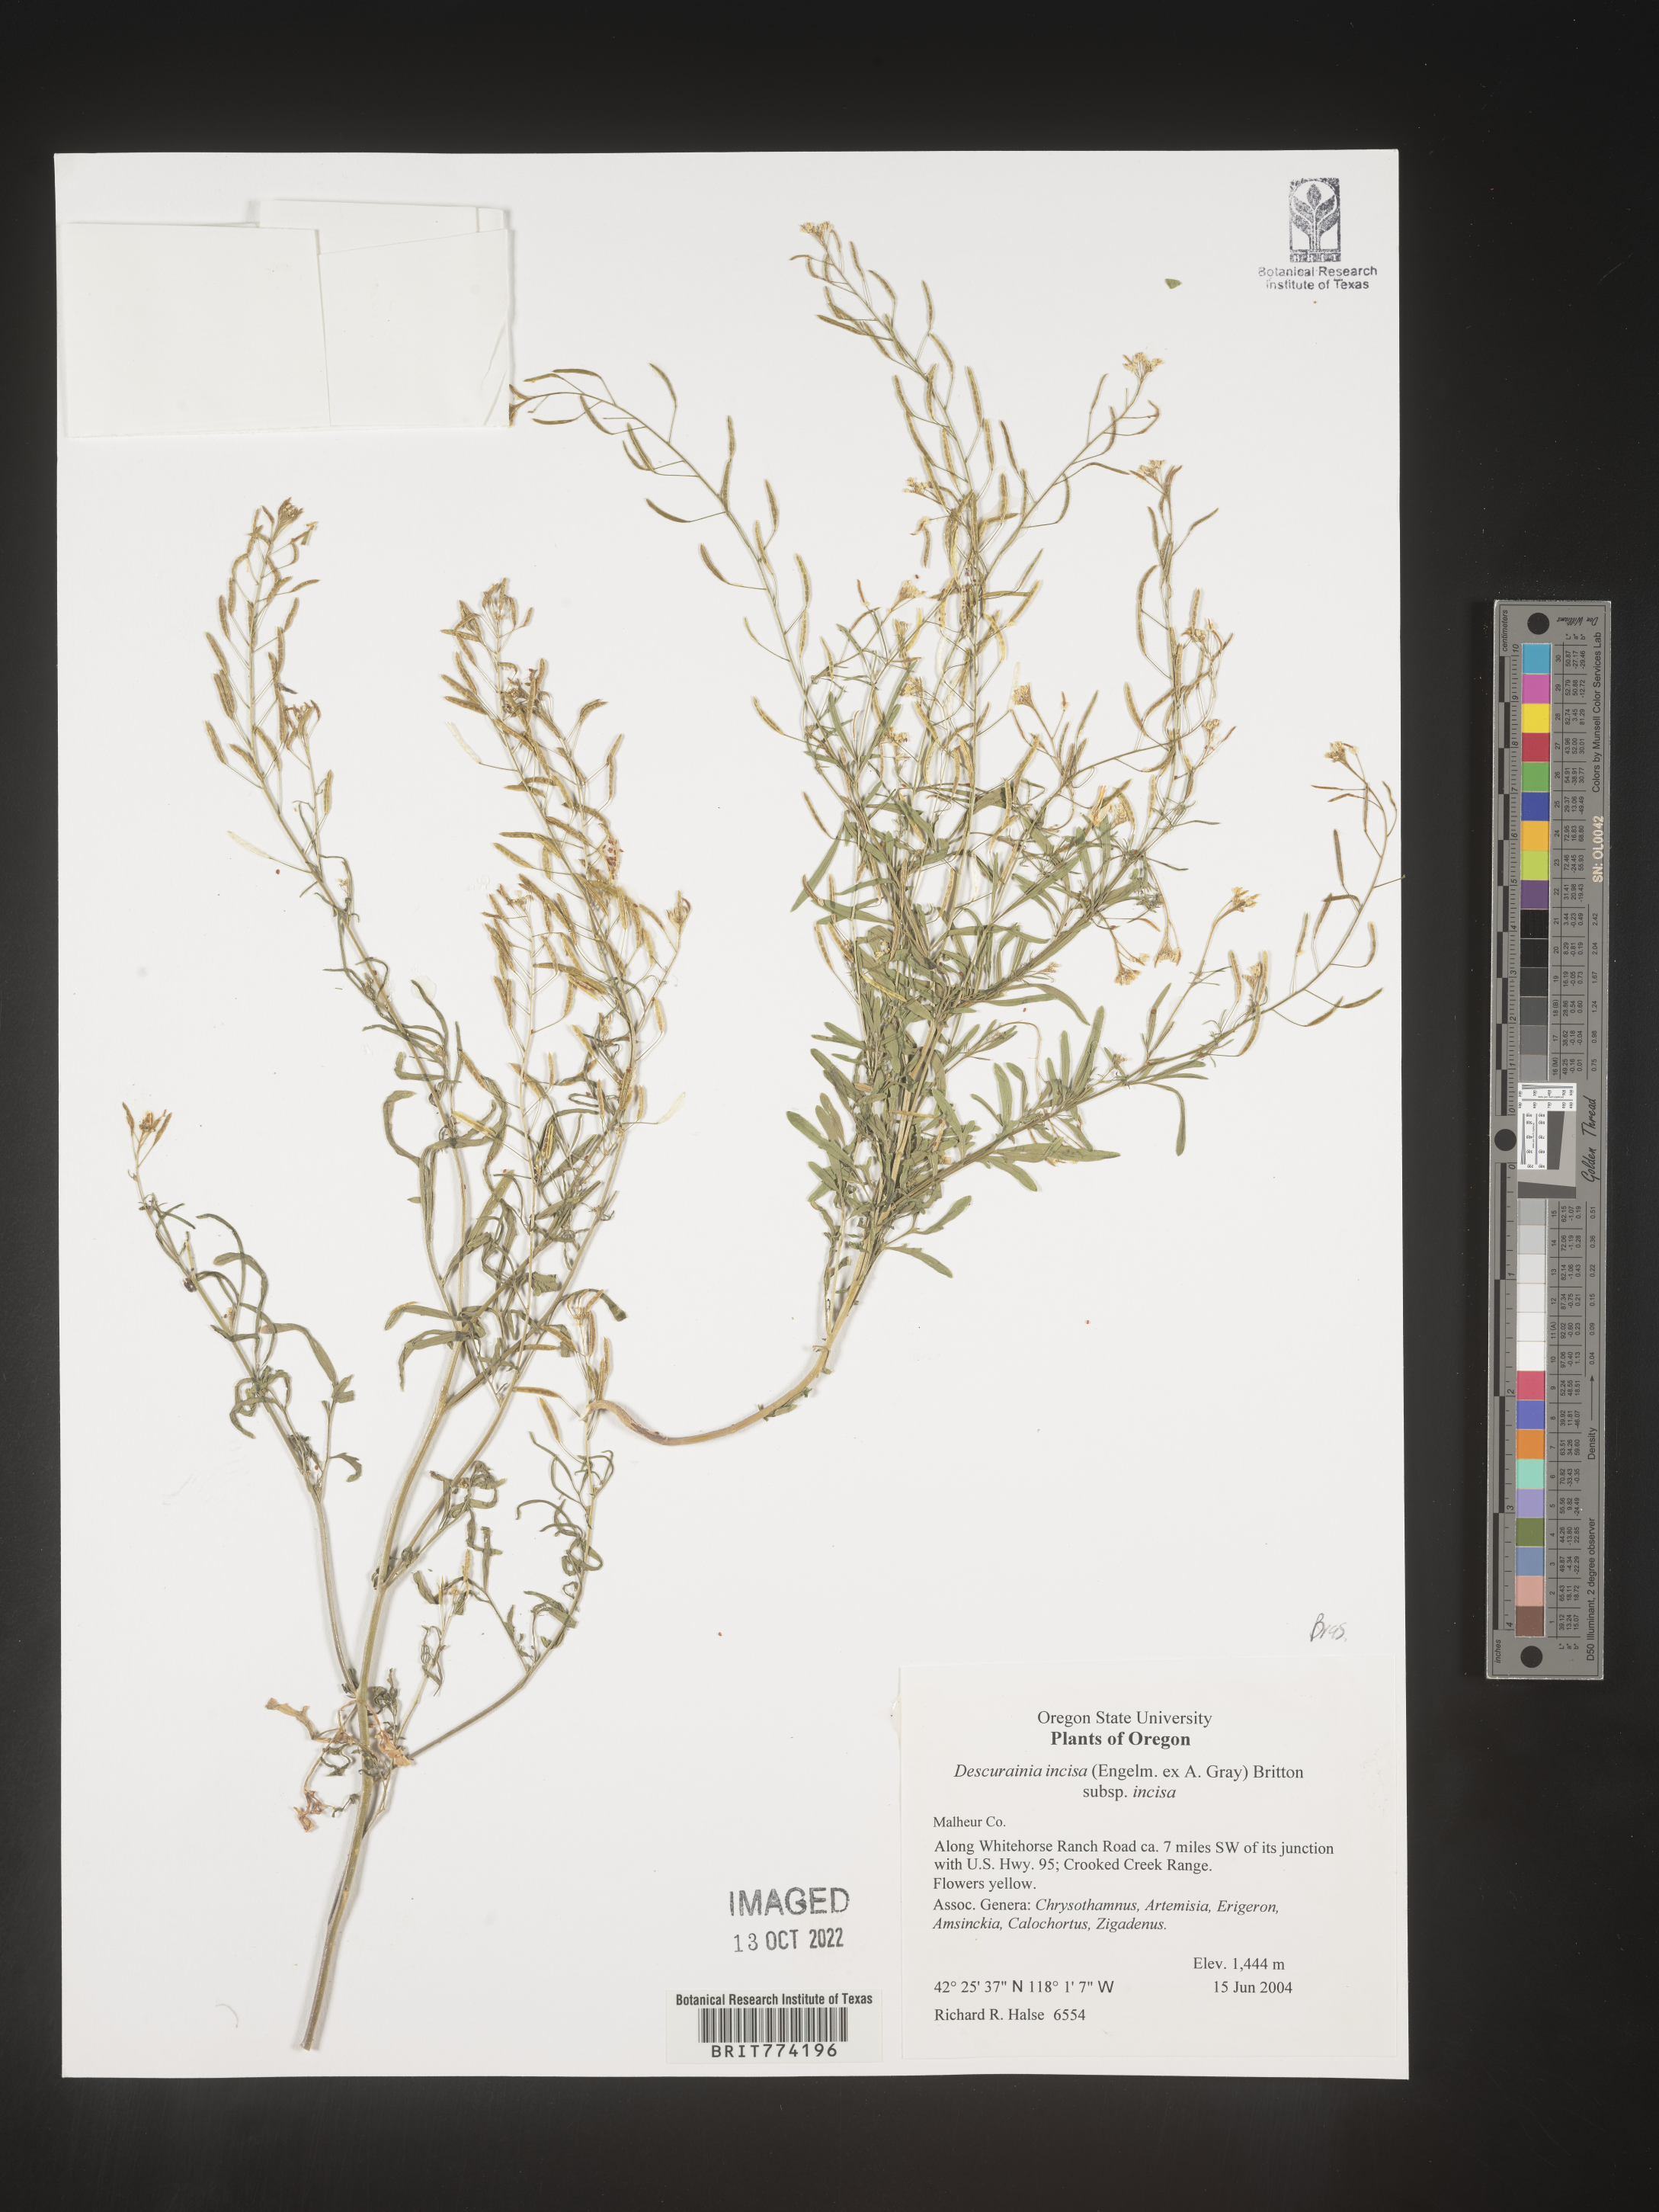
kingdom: Plantae
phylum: Tracheophyta
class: Magnoliopsida
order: Brassicales
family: Brassicaceae
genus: Descurainia
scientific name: Descurainia
